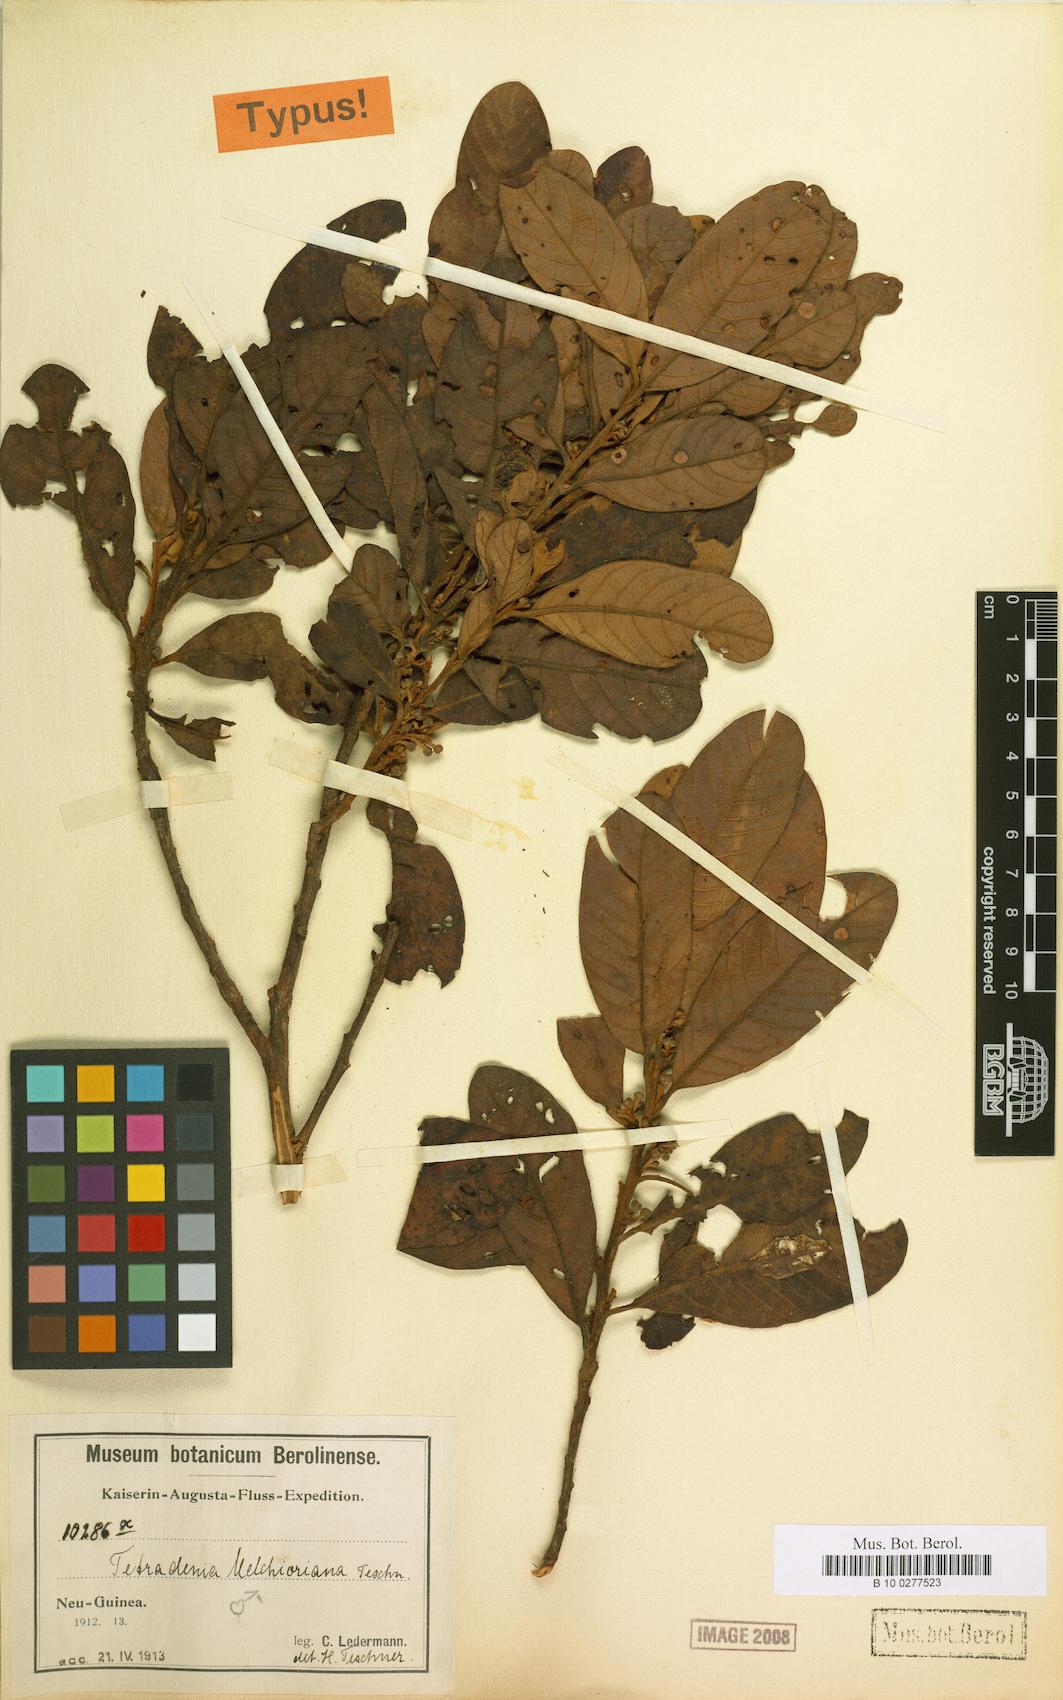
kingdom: Plantae
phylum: Tracheophyta
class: Magnoliopsida
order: Laurales
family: Lauraceae
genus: Litsea
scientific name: Litsea melchioriana
